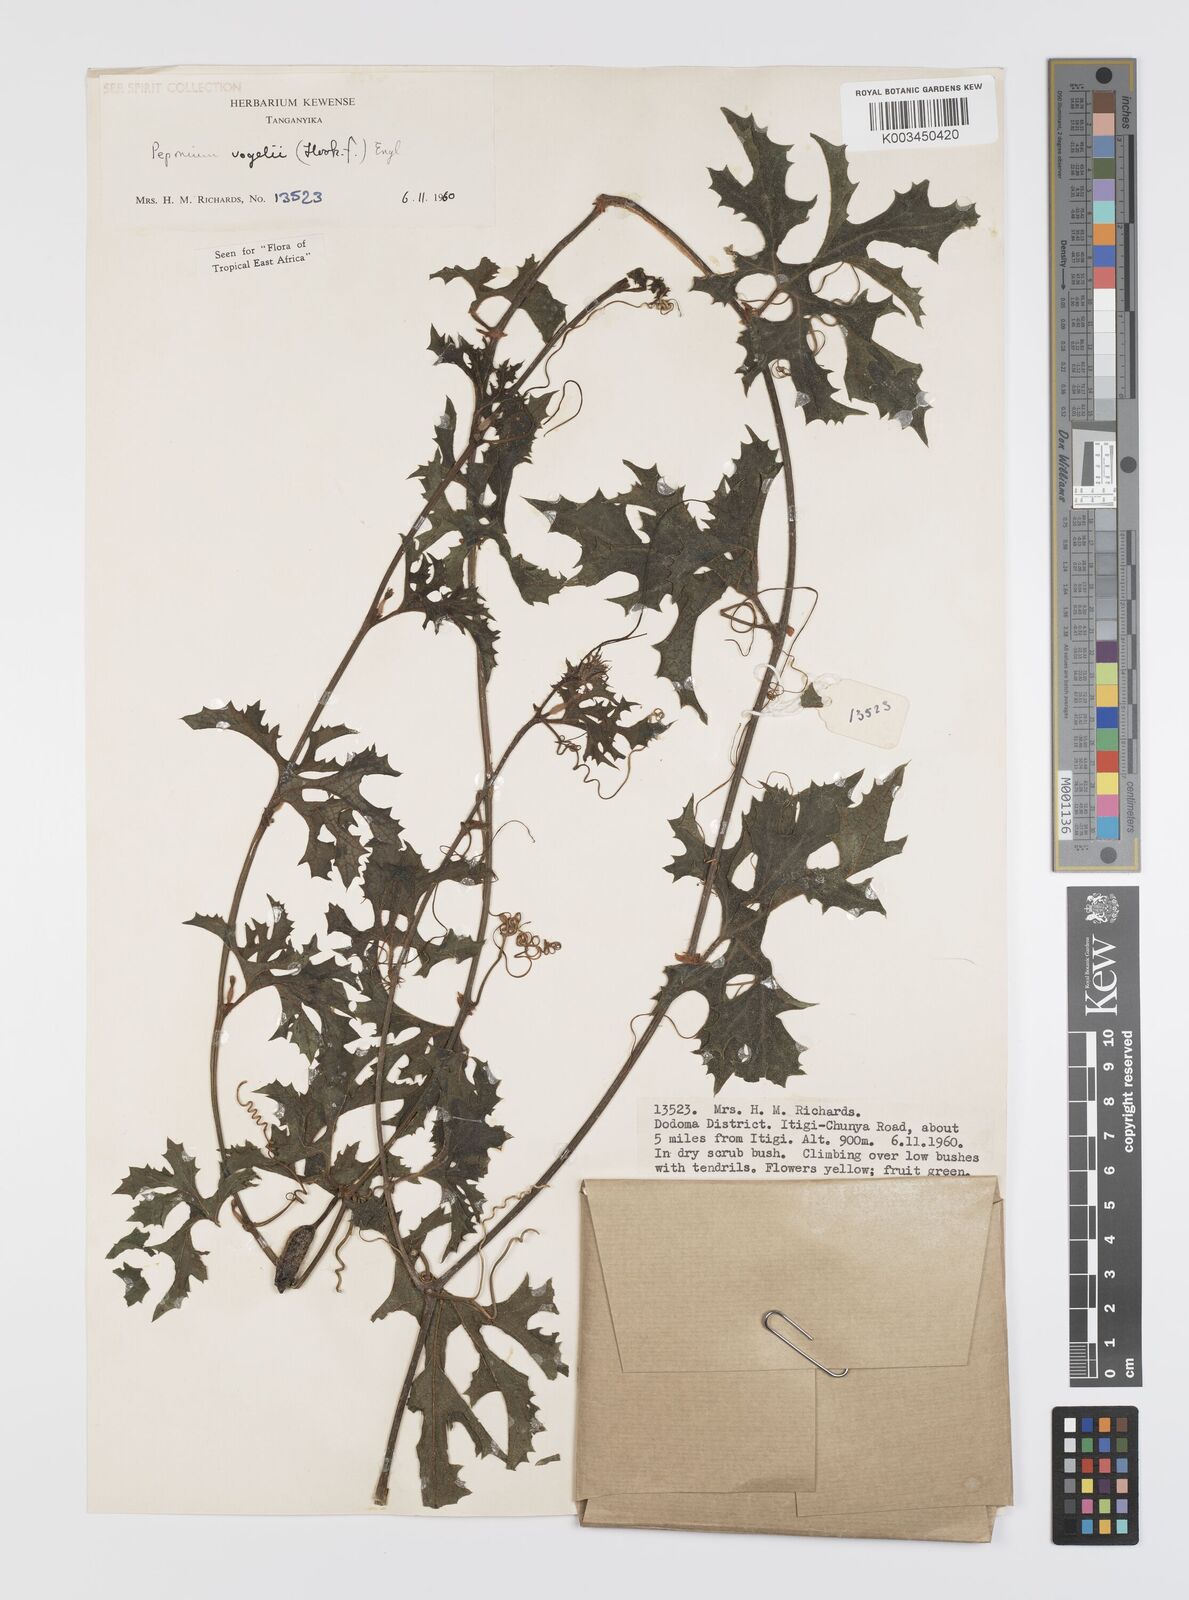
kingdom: Plantae
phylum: Tracheophyta
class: Magnoliopsida
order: Cucurbitales
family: Cucurbitaceae
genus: Peponium
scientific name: Peponium vogelii
